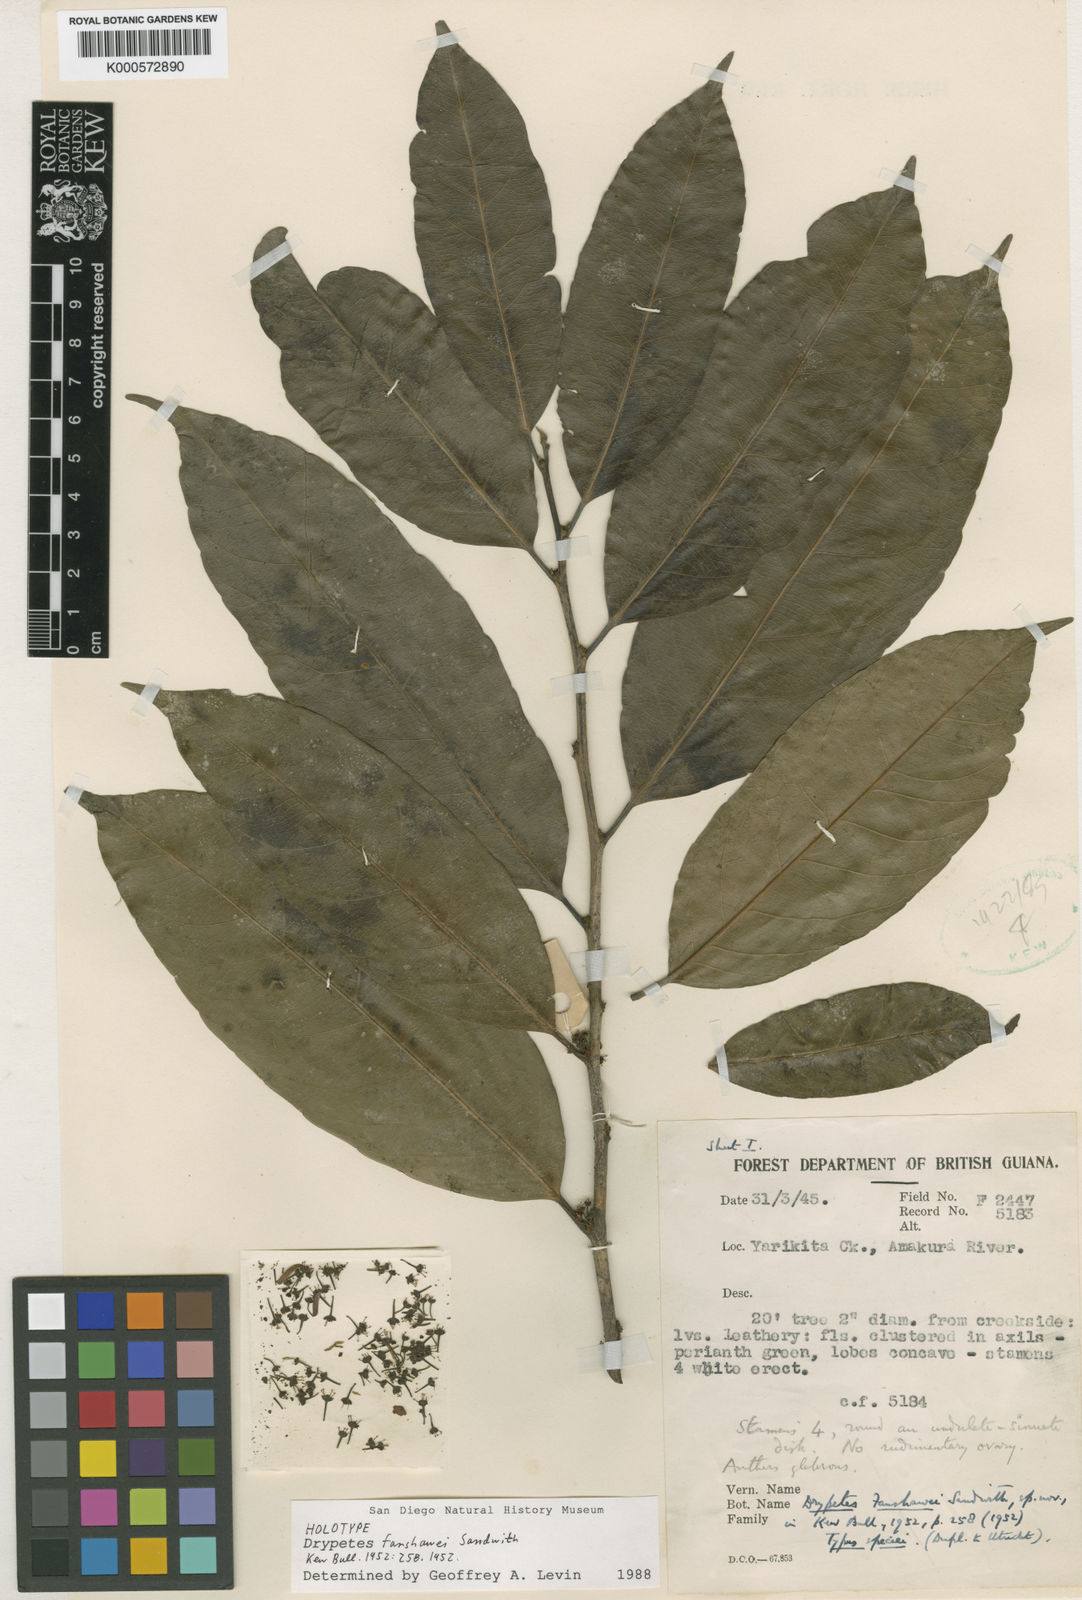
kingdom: Plantae
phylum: Tracheophyta
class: Magnoliopsida
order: Malpighiales
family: Putranjivaceae
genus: Drypetes
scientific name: Drypetes fanshawei
